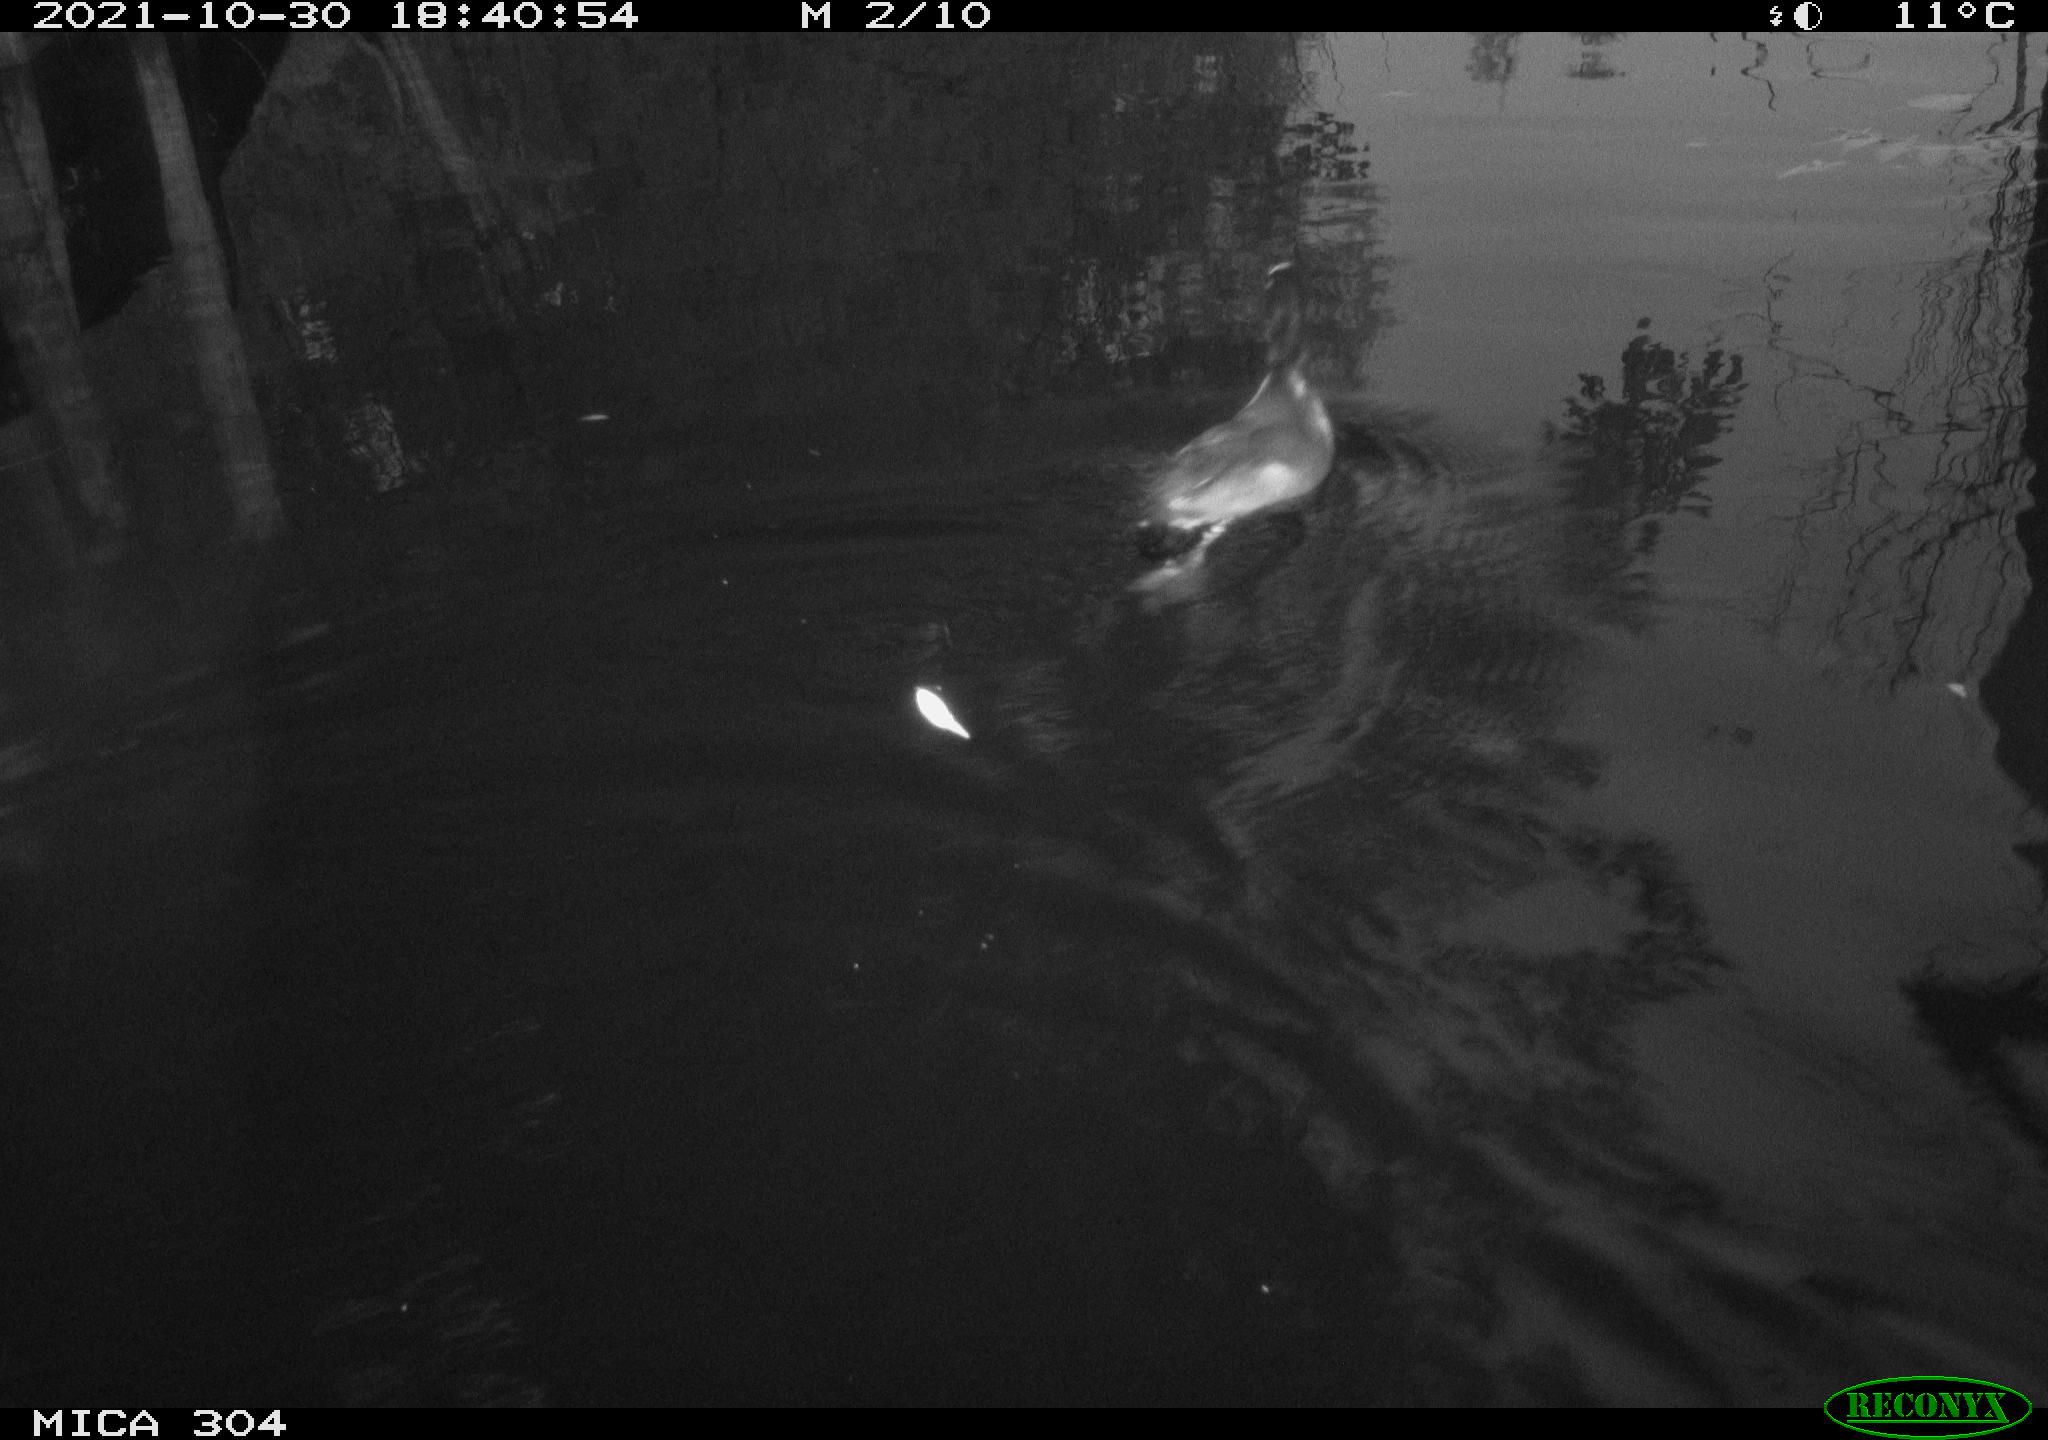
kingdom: Animalia
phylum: Chordata
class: Aves
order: Gruiformes
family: Rallidae
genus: Gallinula
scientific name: Gallinula chloropus
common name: Common moorhen
